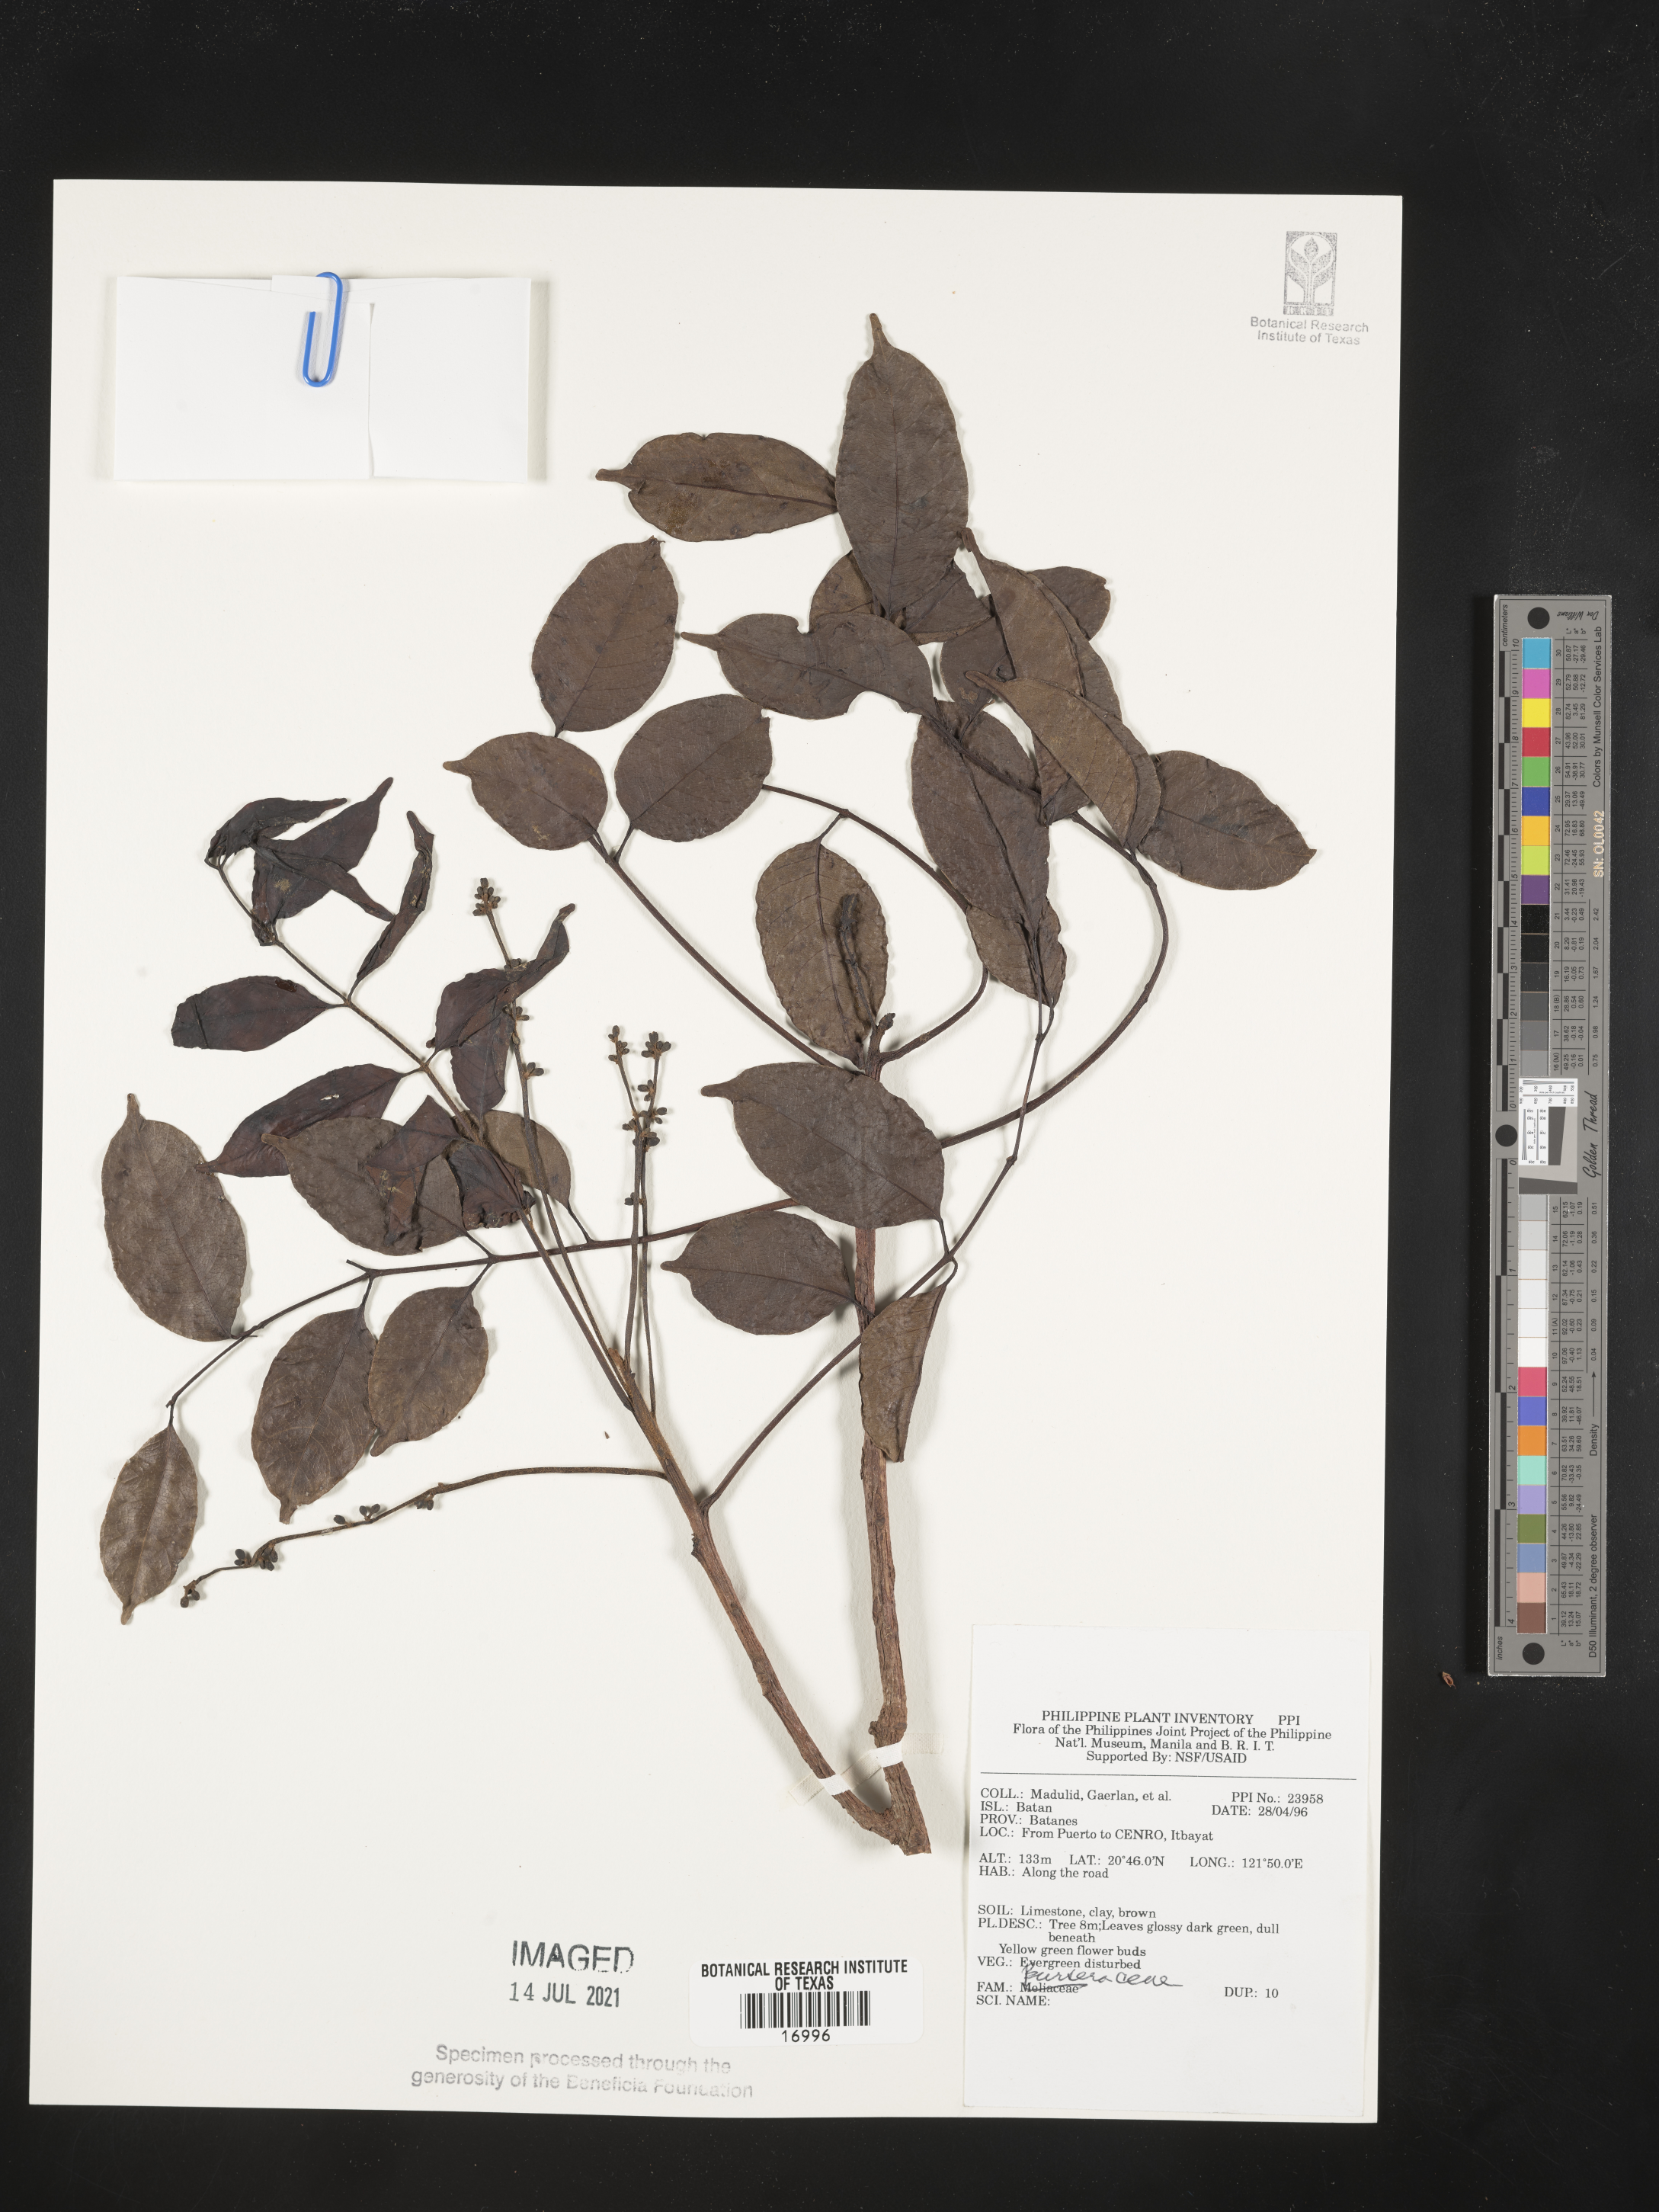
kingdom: Plantae
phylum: Tracheophyta
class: Magnoliopsida
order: Sapindales
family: Burseraceae
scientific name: Burseraceae
